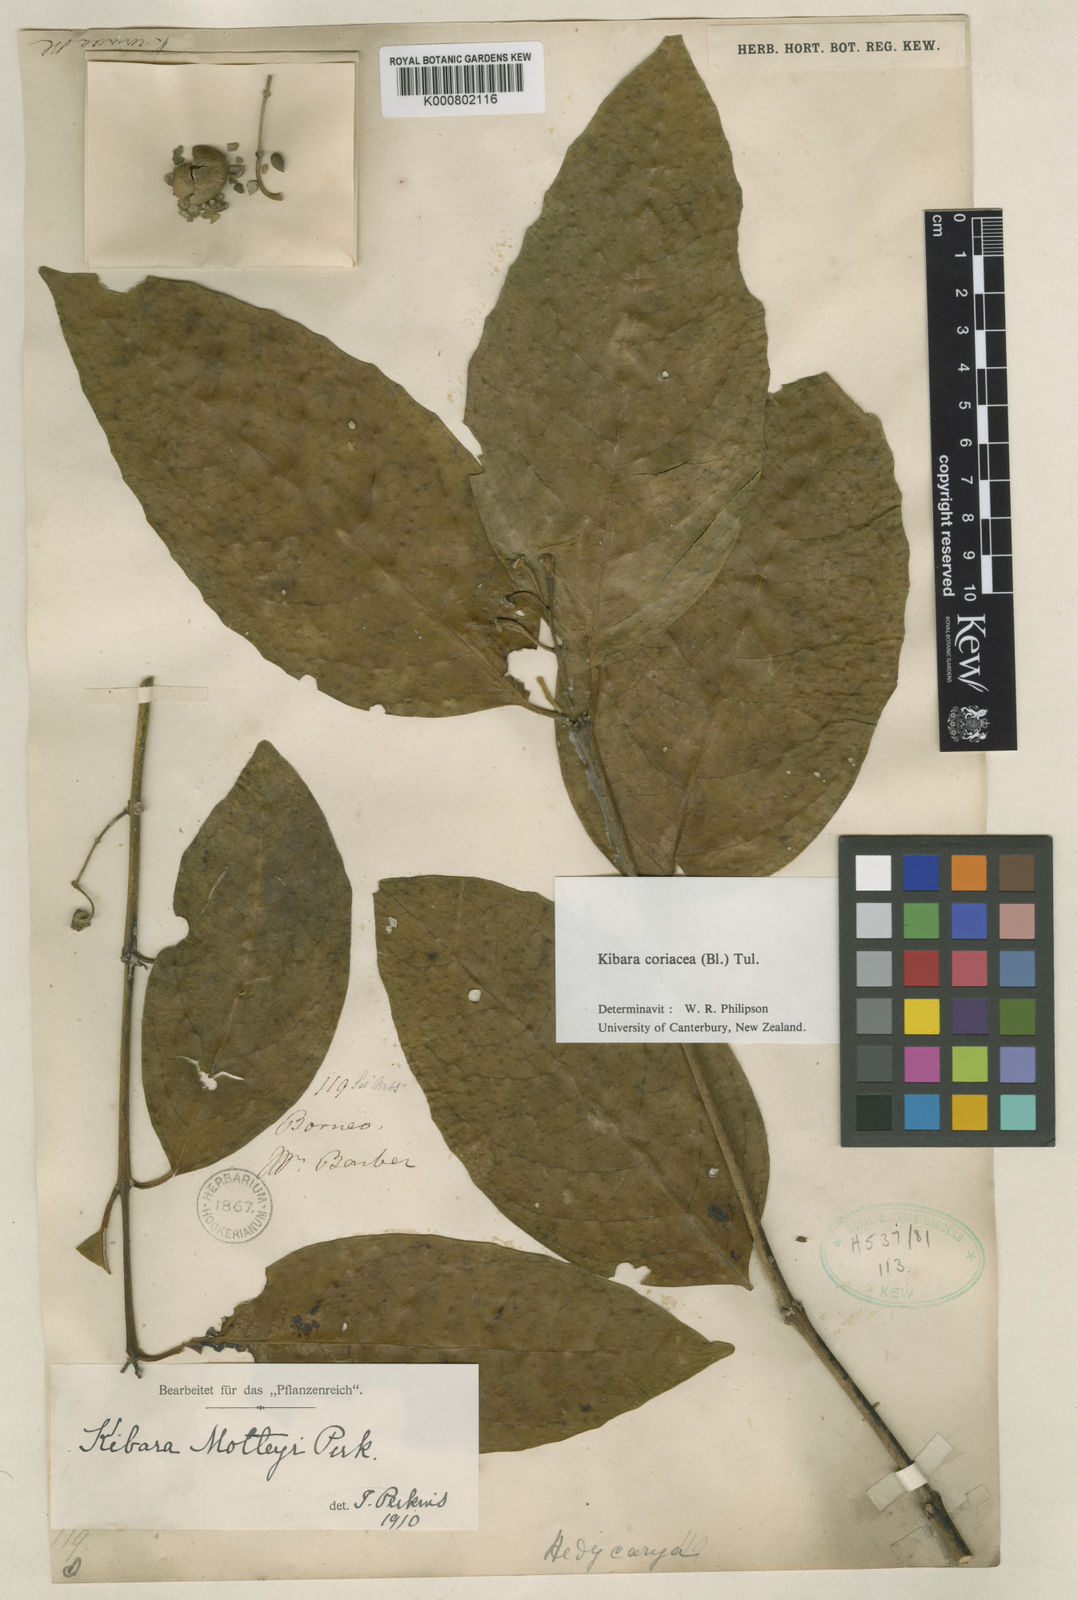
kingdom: Plantae
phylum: Tracheophyta
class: Magnoliopsida
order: Laurales
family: Monimiaceae
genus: Kibara
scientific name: Kibara coriacea
